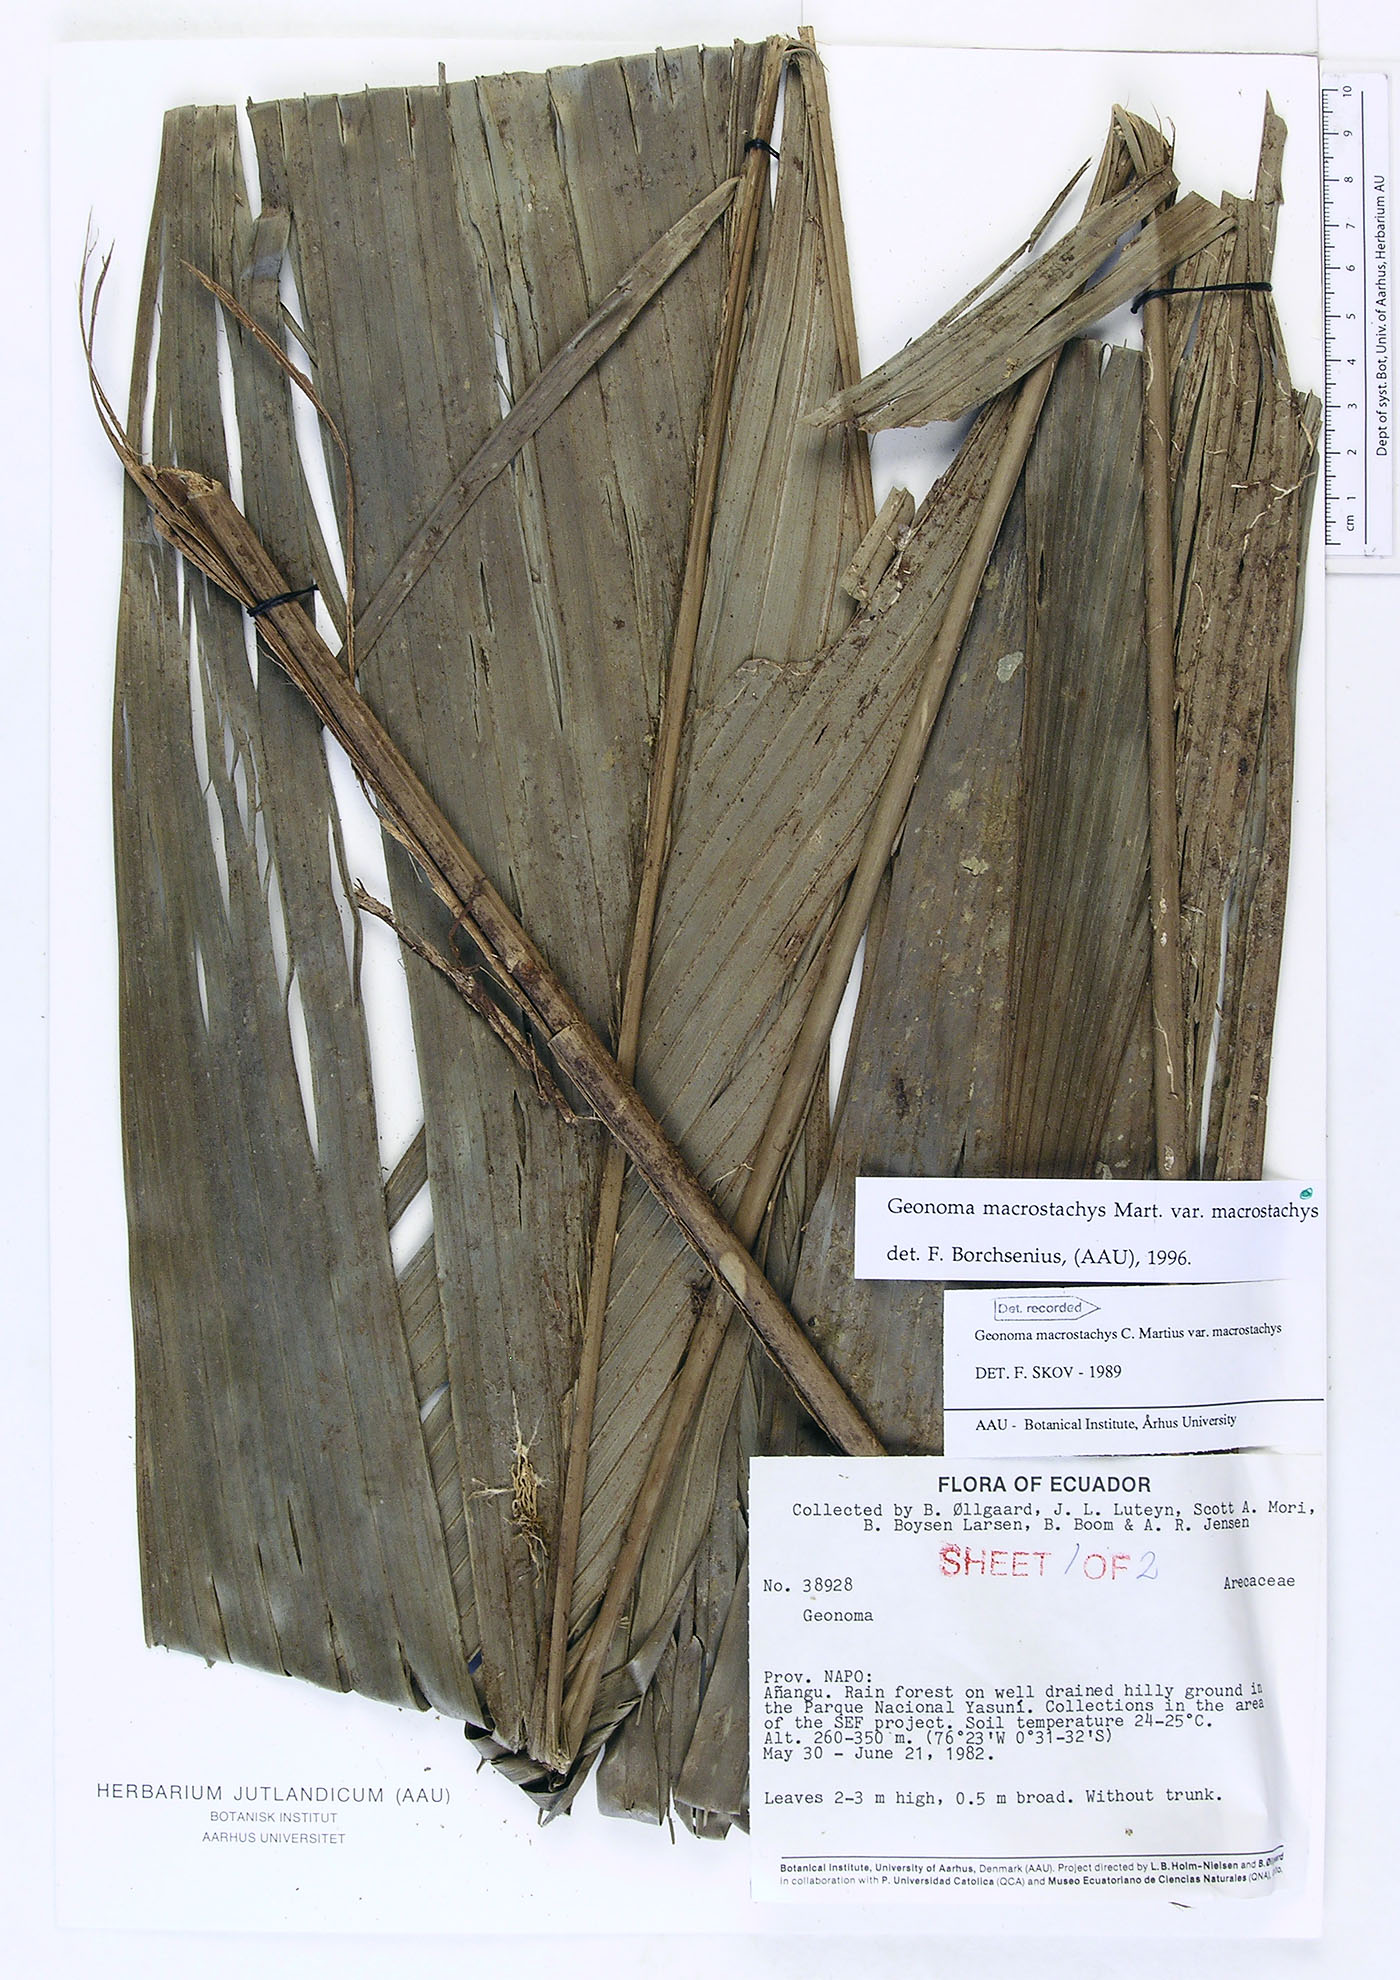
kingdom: Plantae
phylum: Tracheophyta
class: Liliopsida
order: Arecales
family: Arecaceae
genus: Geonoma
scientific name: Geonoma macrostachys
